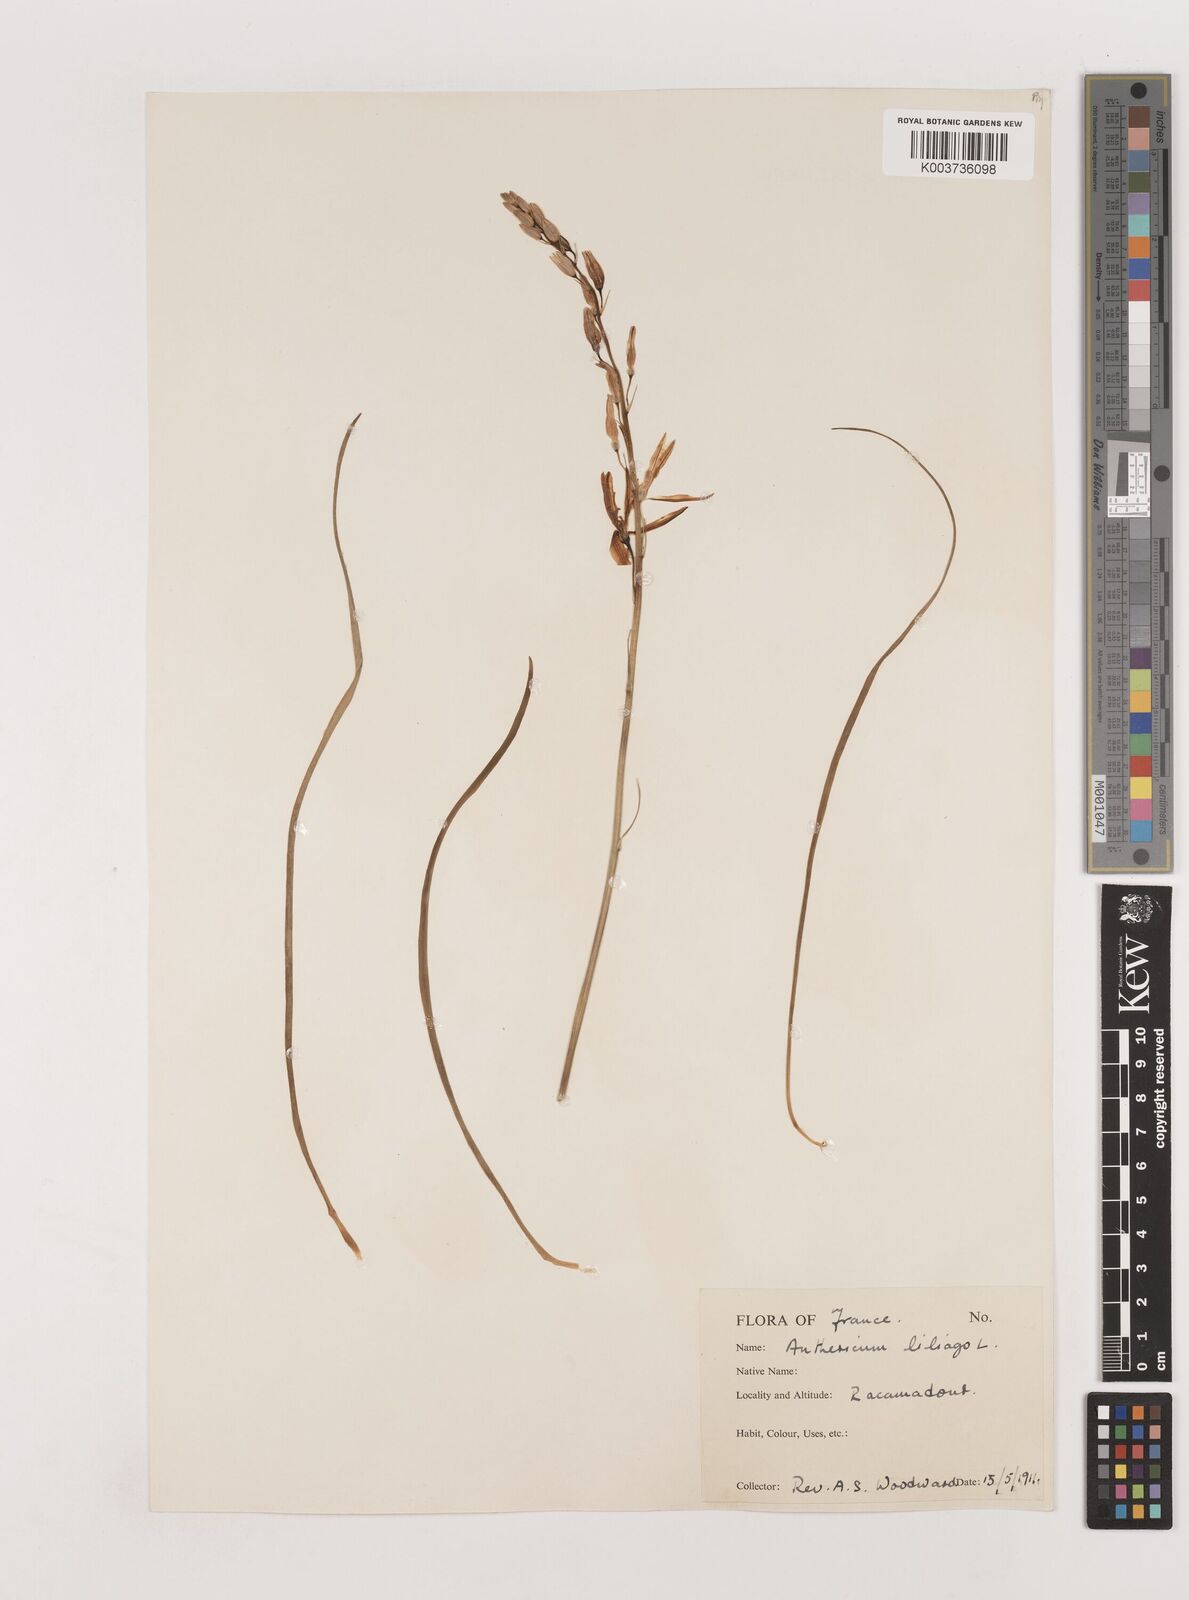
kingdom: Plantae
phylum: Tracheophyta
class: Liliopsida
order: Asparagales
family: Asparagaceae
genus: Anthericum
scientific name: Anthericum liliago
